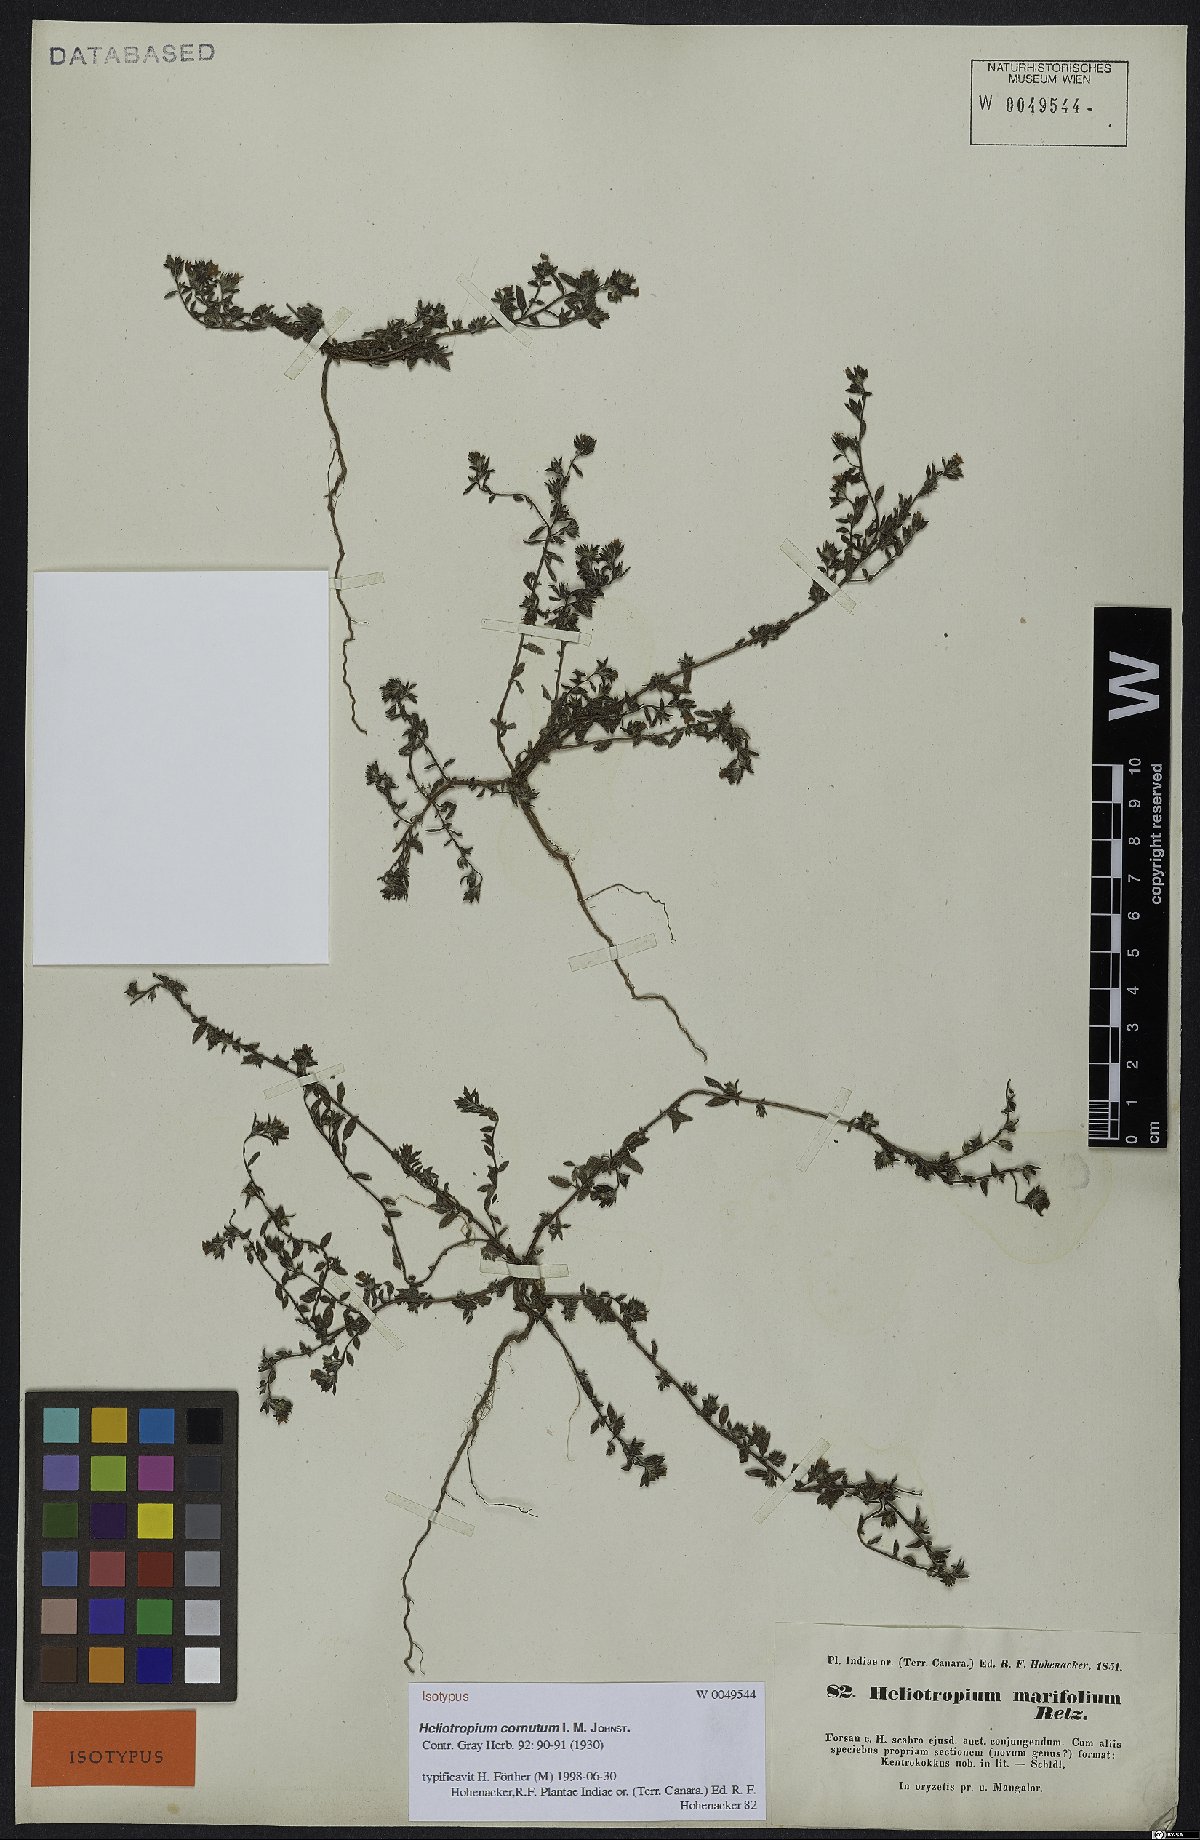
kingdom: Plantae
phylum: Tracheophyta
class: Magnoliopsida
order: Boraginales
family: Heliotropiaceae
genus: Euploca
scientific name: Euploca cornuta
